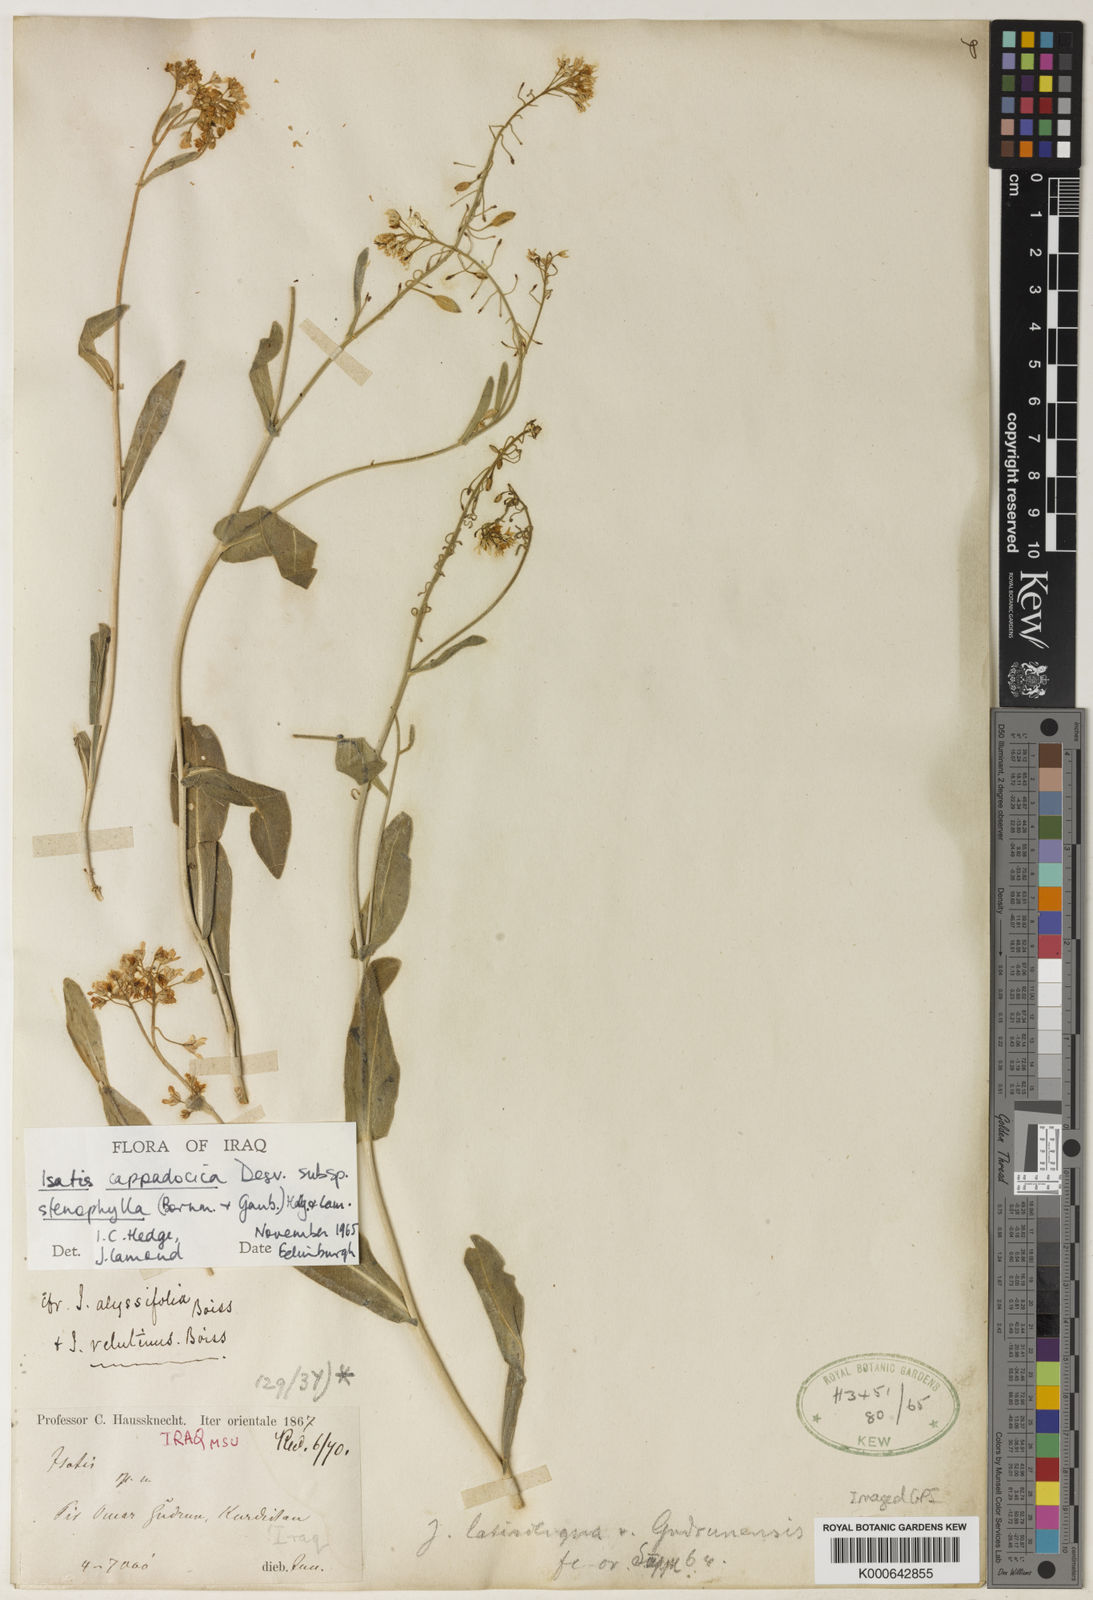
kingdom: Plantae
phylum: Tracheophyta
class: Magnoliopsida
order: Brassicales
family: Brassicaceae
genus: Isatis
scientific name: Isatis cappadocica
